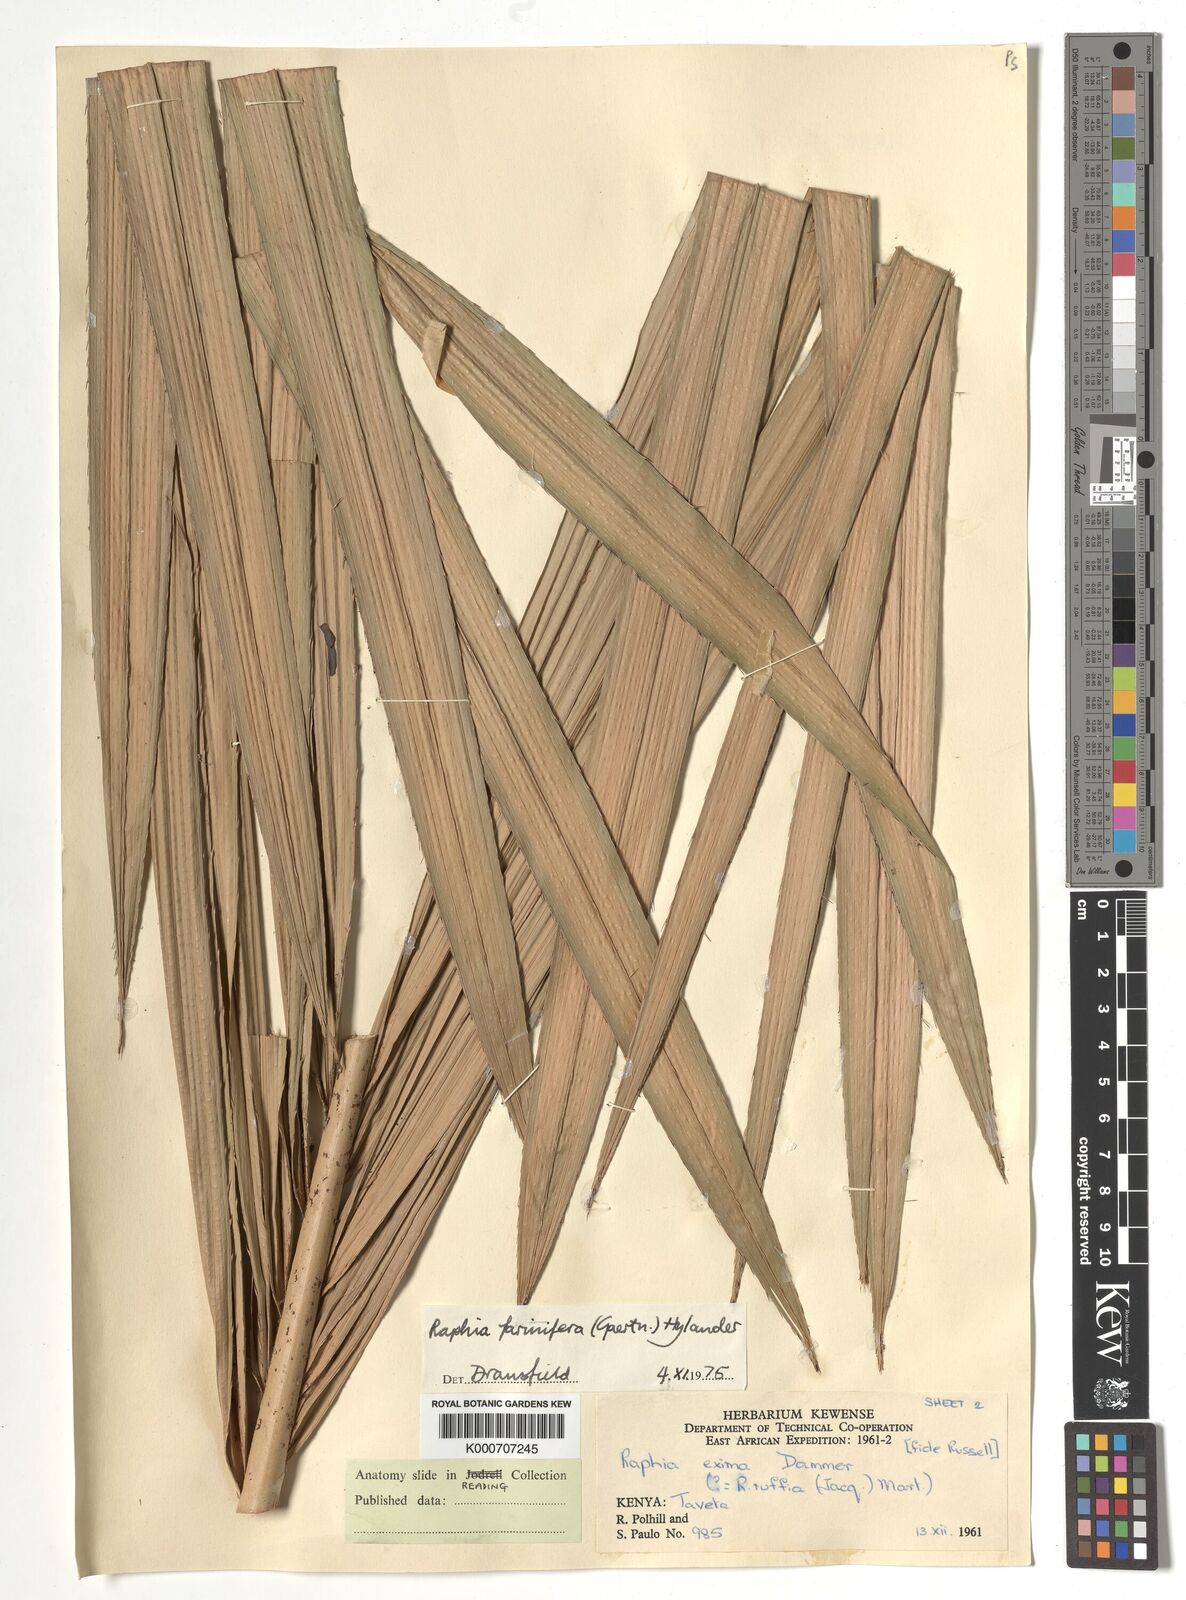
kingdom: Plantae
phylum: Tracheophyta
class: Liliopsida
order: Arecales
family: Arecaceae
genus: Raphia
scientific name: Raphia farinifera
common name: Raphia palm
